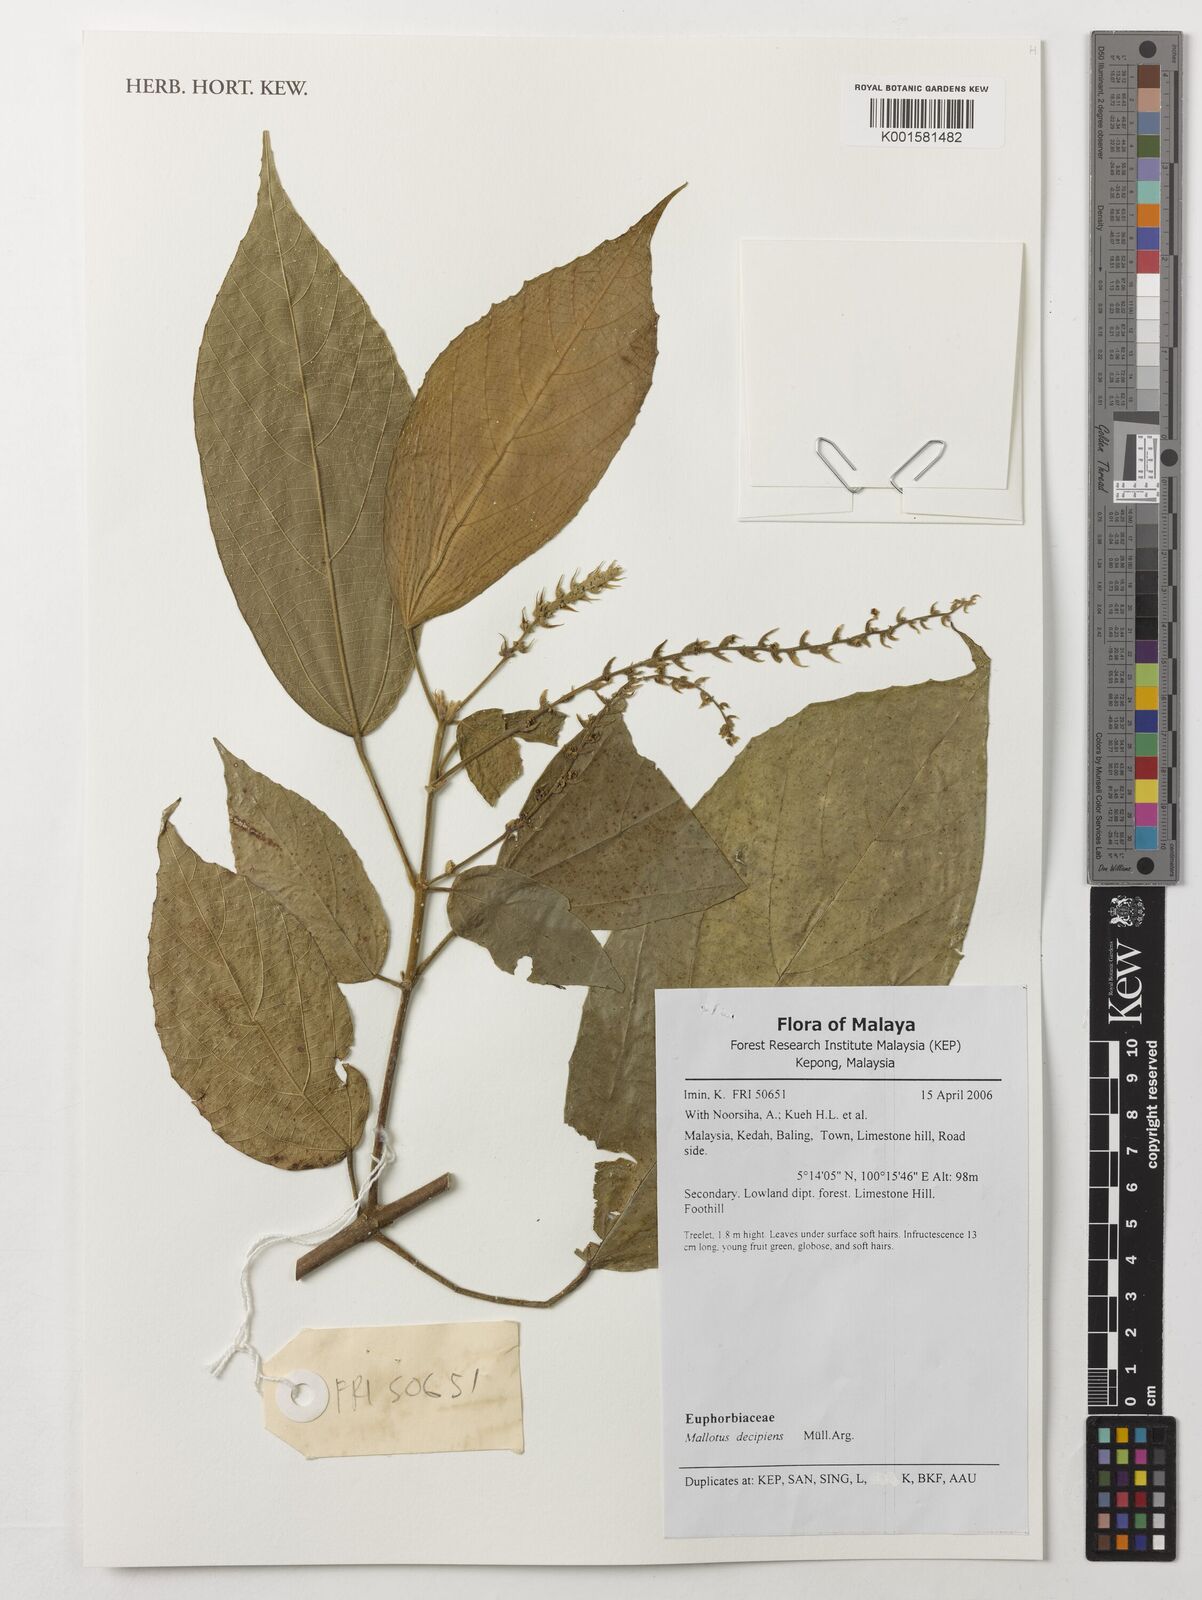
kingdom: Plantae
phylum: Tracheophyta
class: Magnoliopsida
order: Malpighiales
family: Euphorbiaceae
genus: Mallotus
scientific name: Mallotus decipiens
